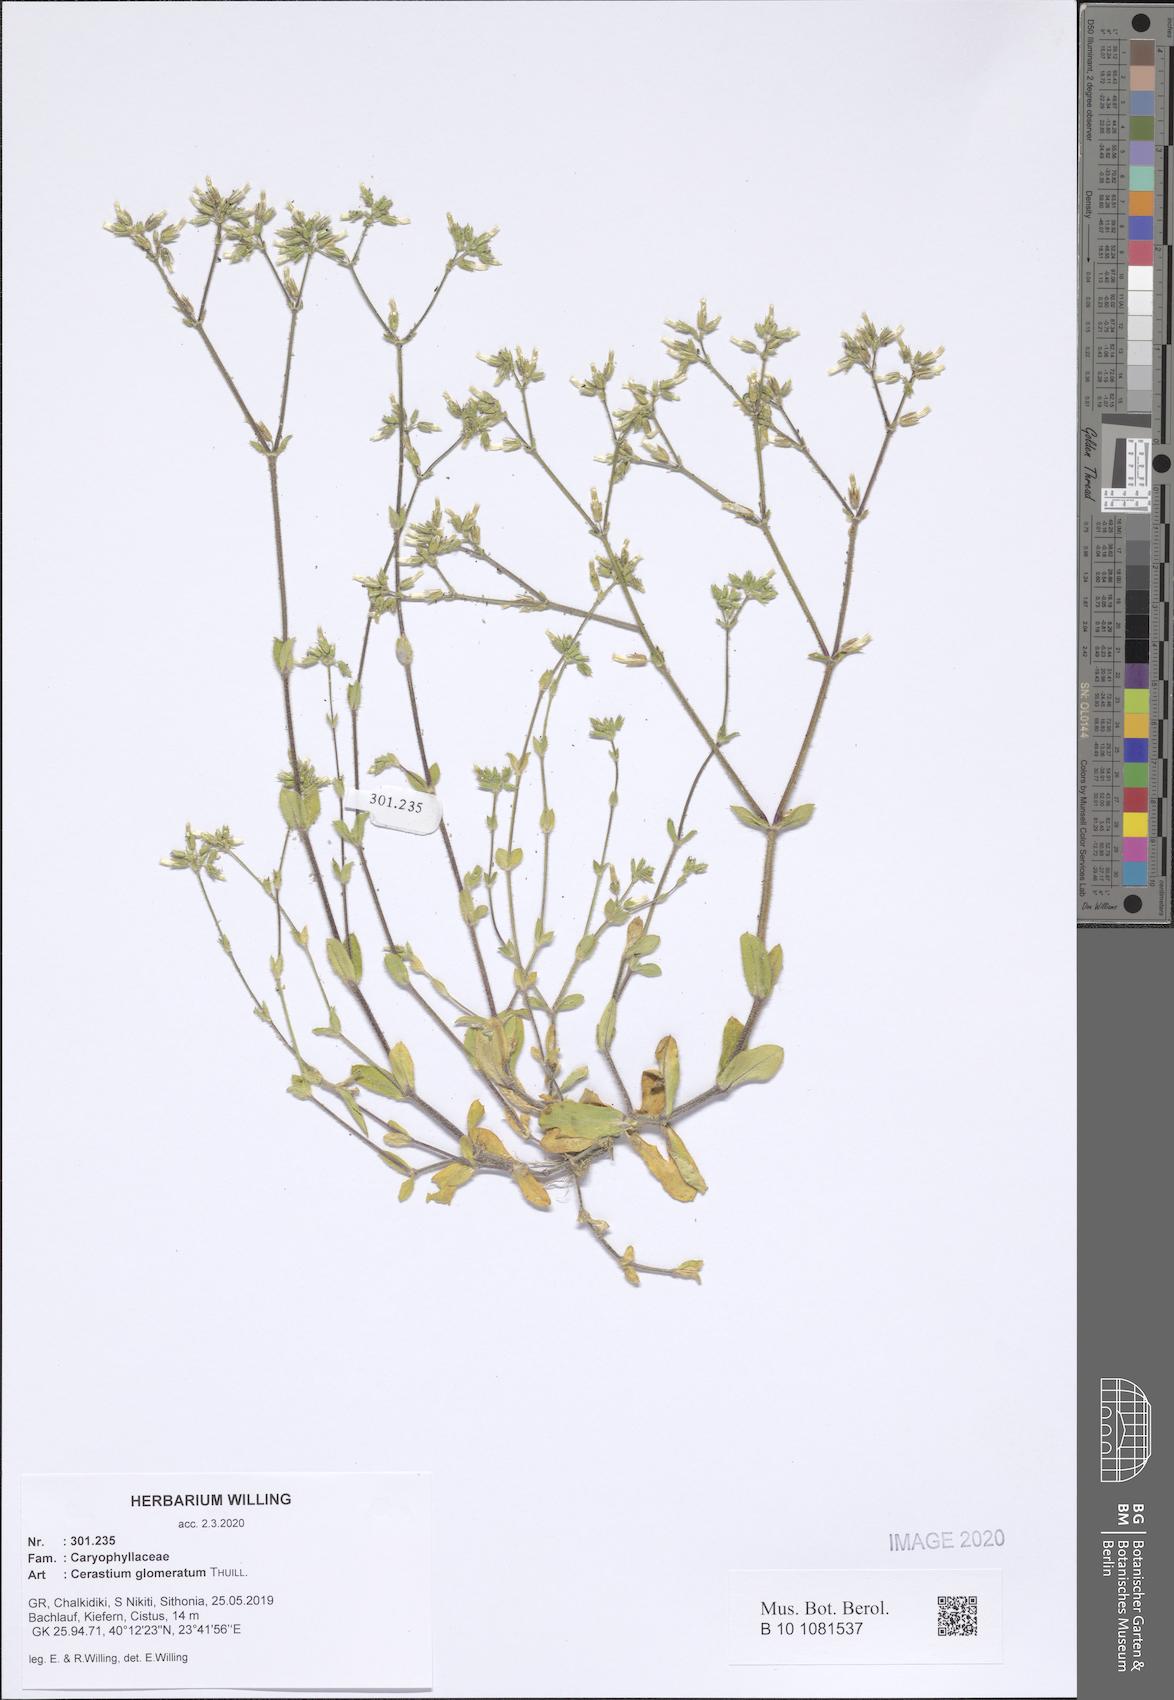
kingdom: Plantae
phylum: Tracheophyta
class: Magnoliopsida
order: Caryophyllales
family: Caryophyllaceae
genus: Cerastium
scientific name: Cerastium glomeratum
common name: Sticky chickweed
